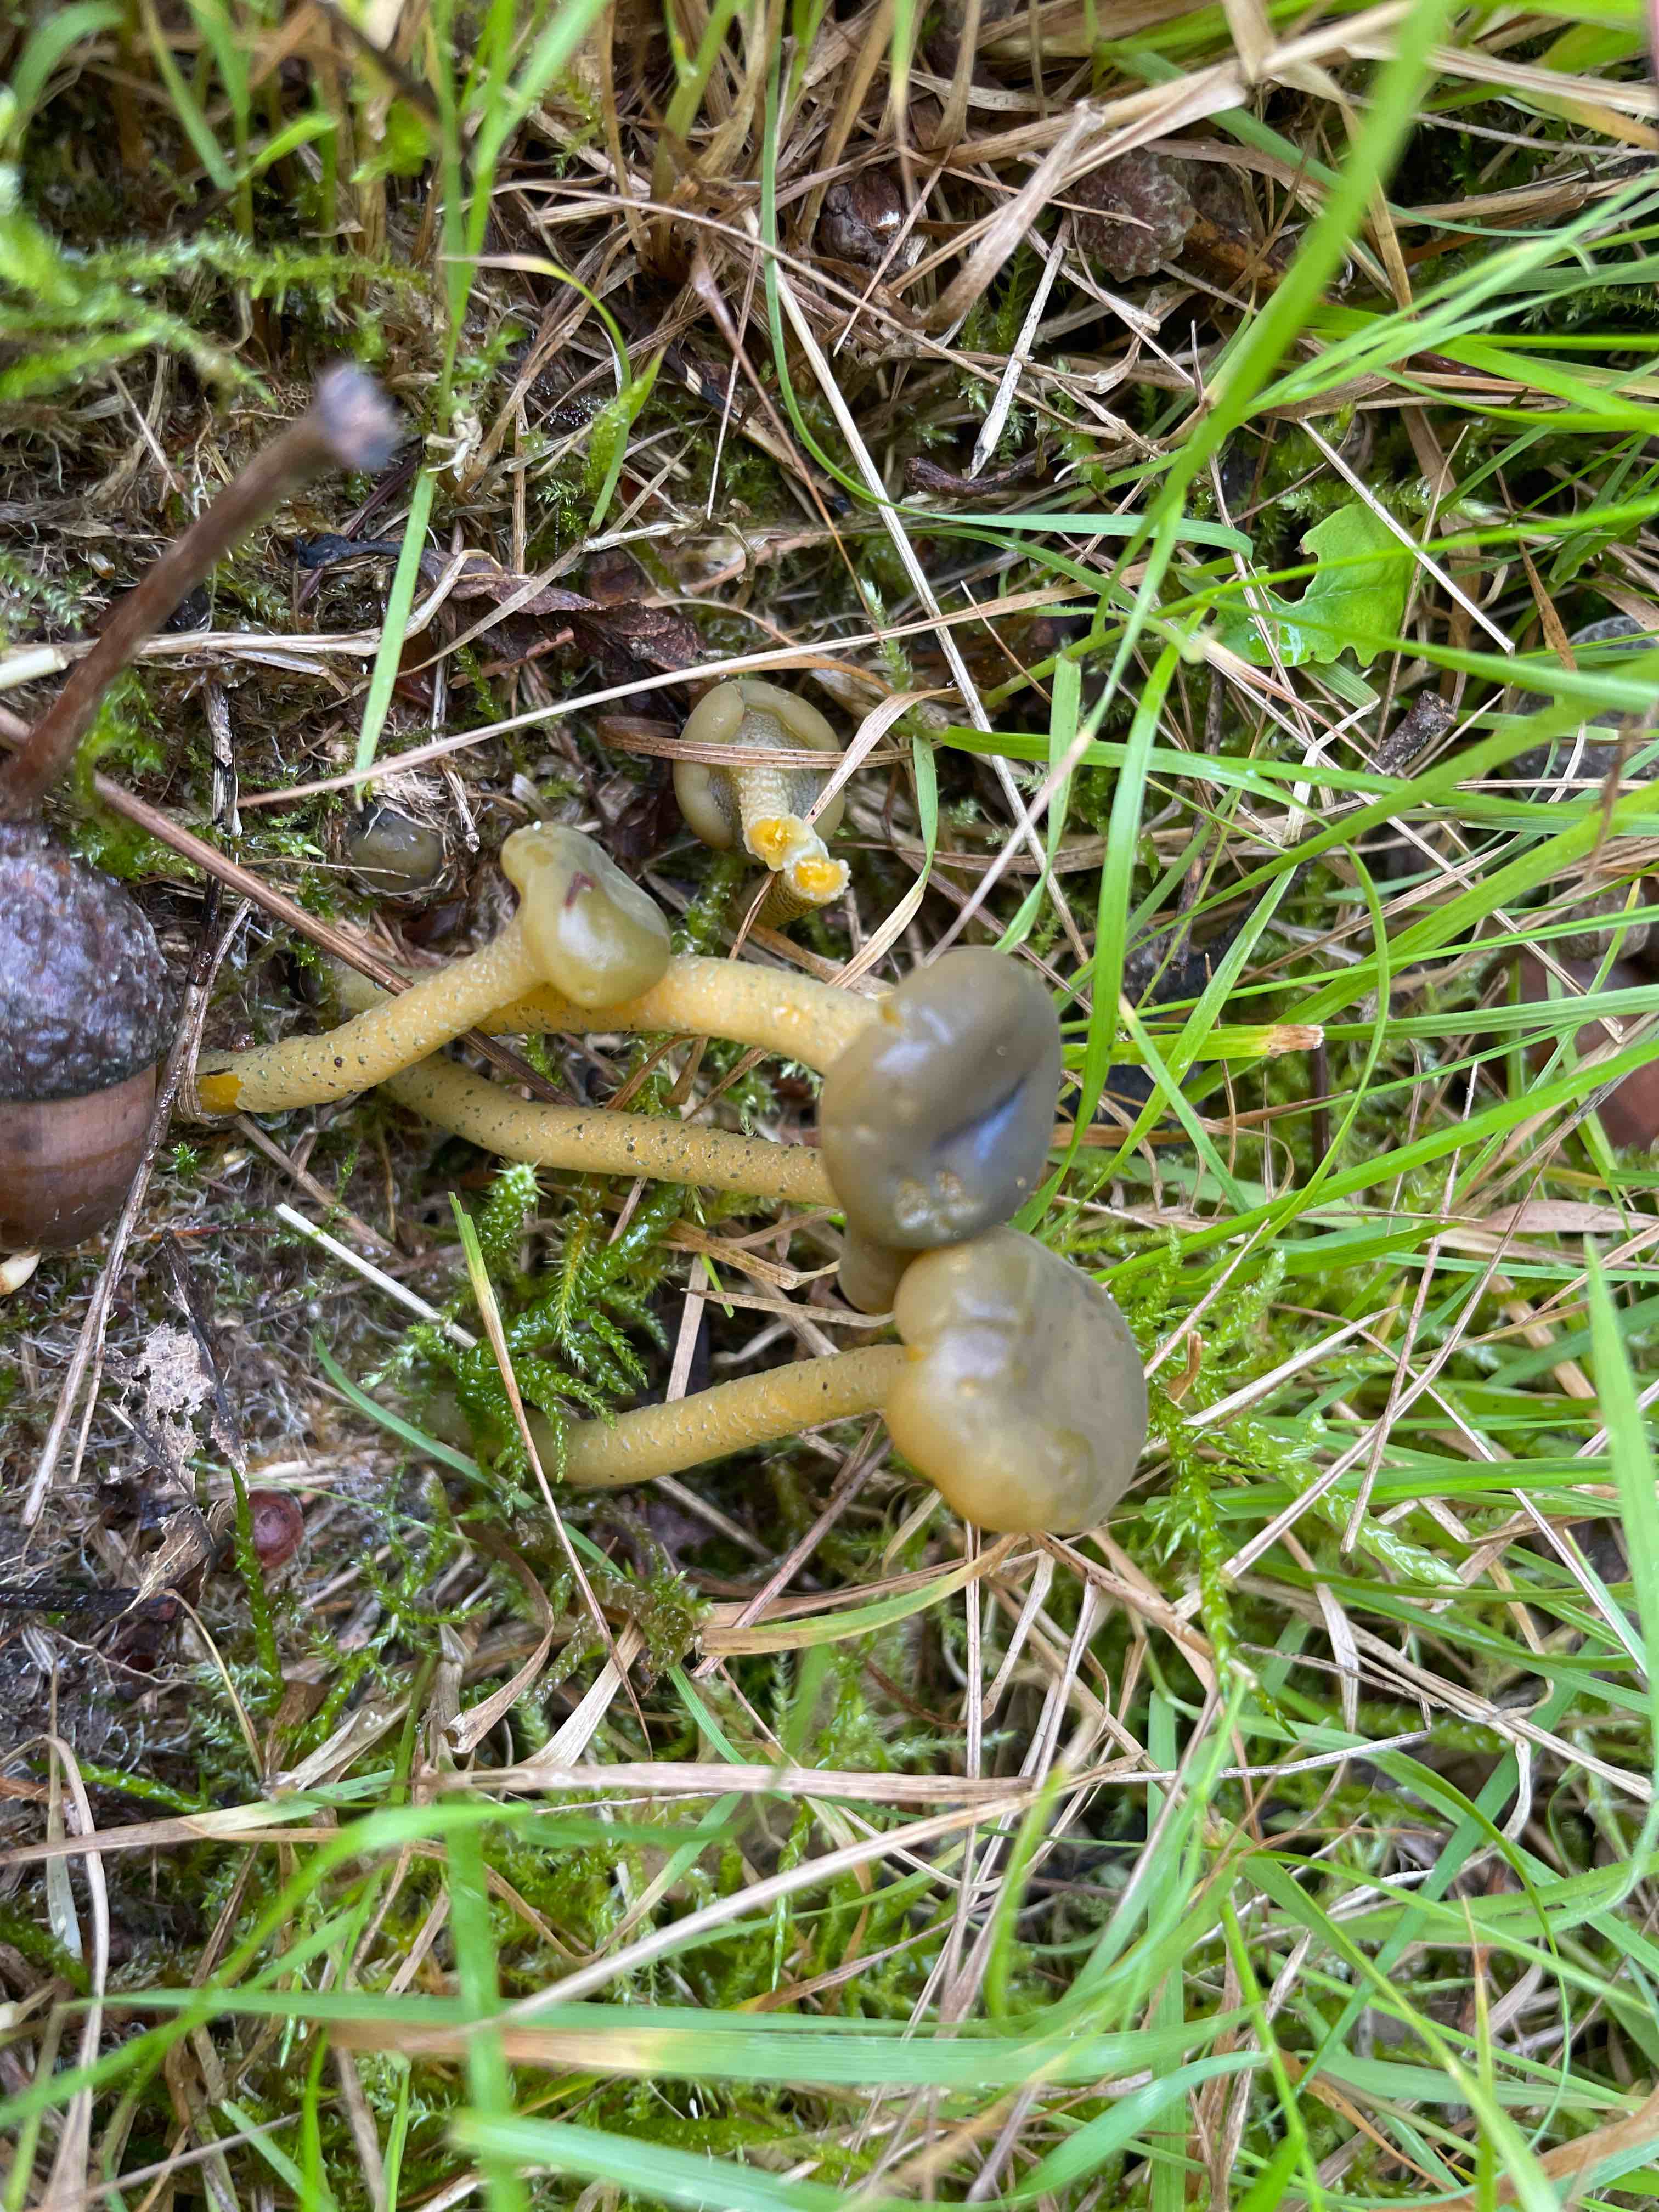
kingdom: Fungi
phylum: Ascomycota
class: Leotiomycetes
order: Leotiales
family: Leotiaceae
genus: Leotia
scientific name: Leotia lubrica
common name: ravsvamp
